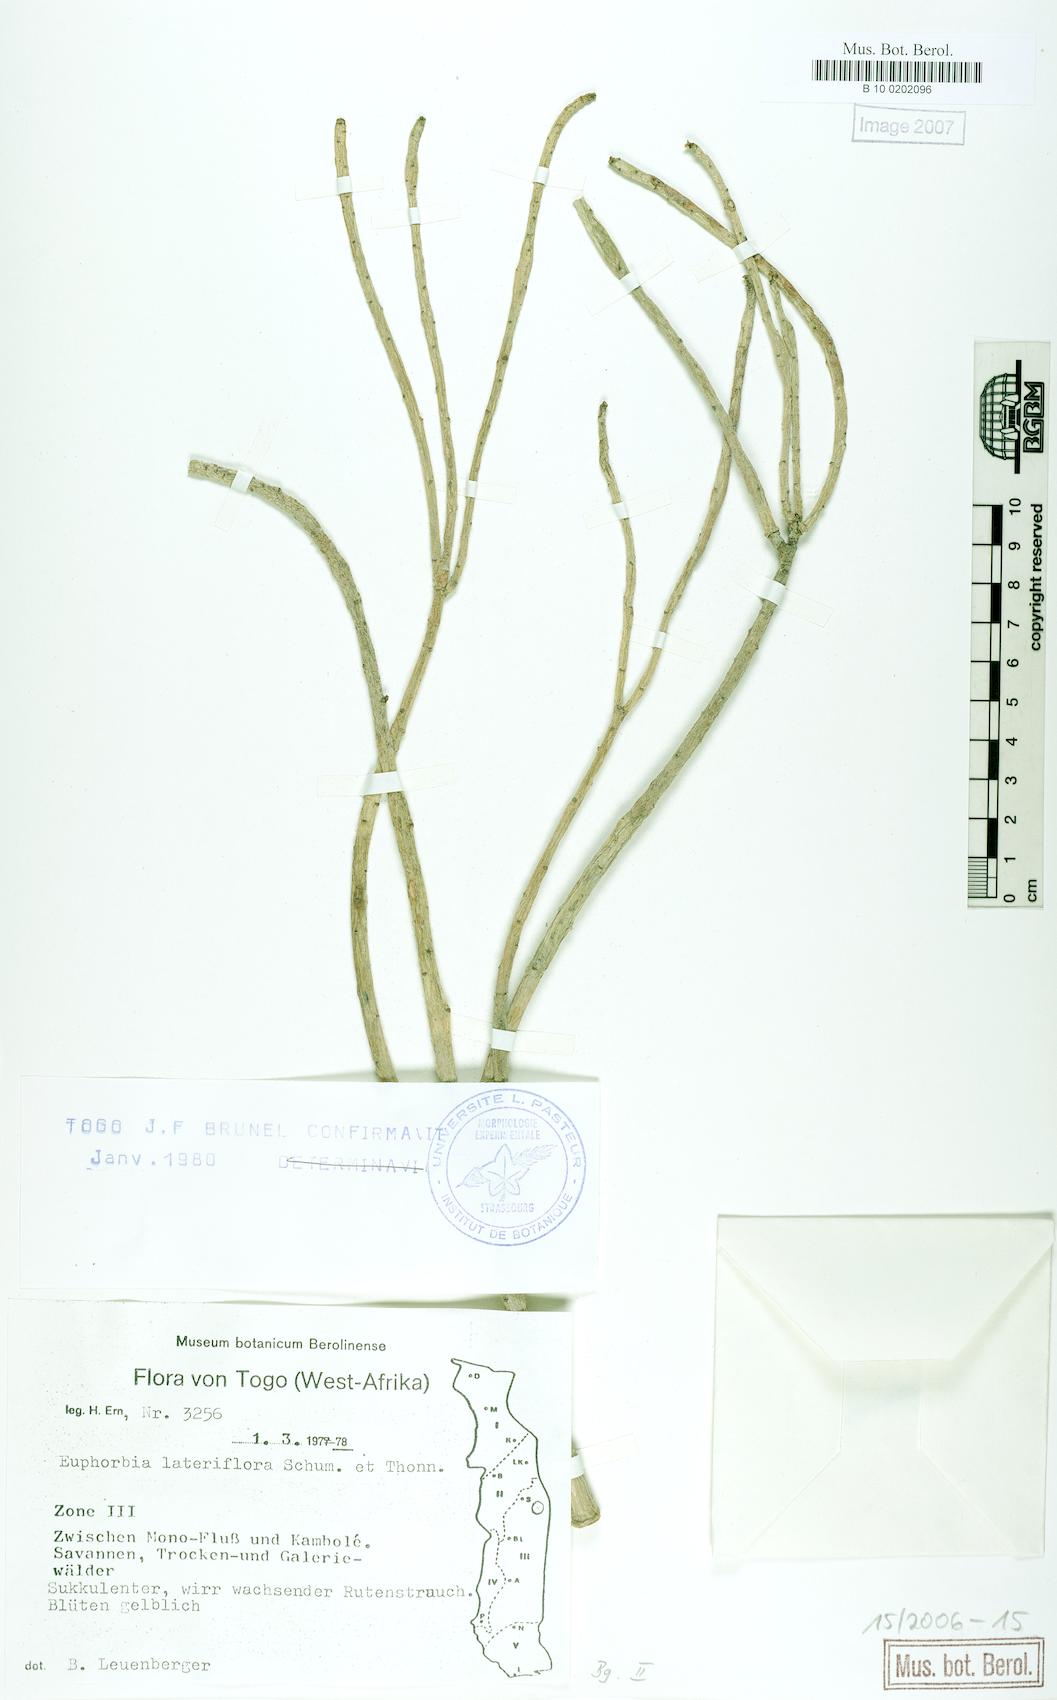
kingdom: Plantae
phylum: Tracheophyta
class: Magnoliopsida
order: Malpighiales
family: Euphorbiaceae
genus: Euphorbia
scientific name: Euphorbia lateriflora
